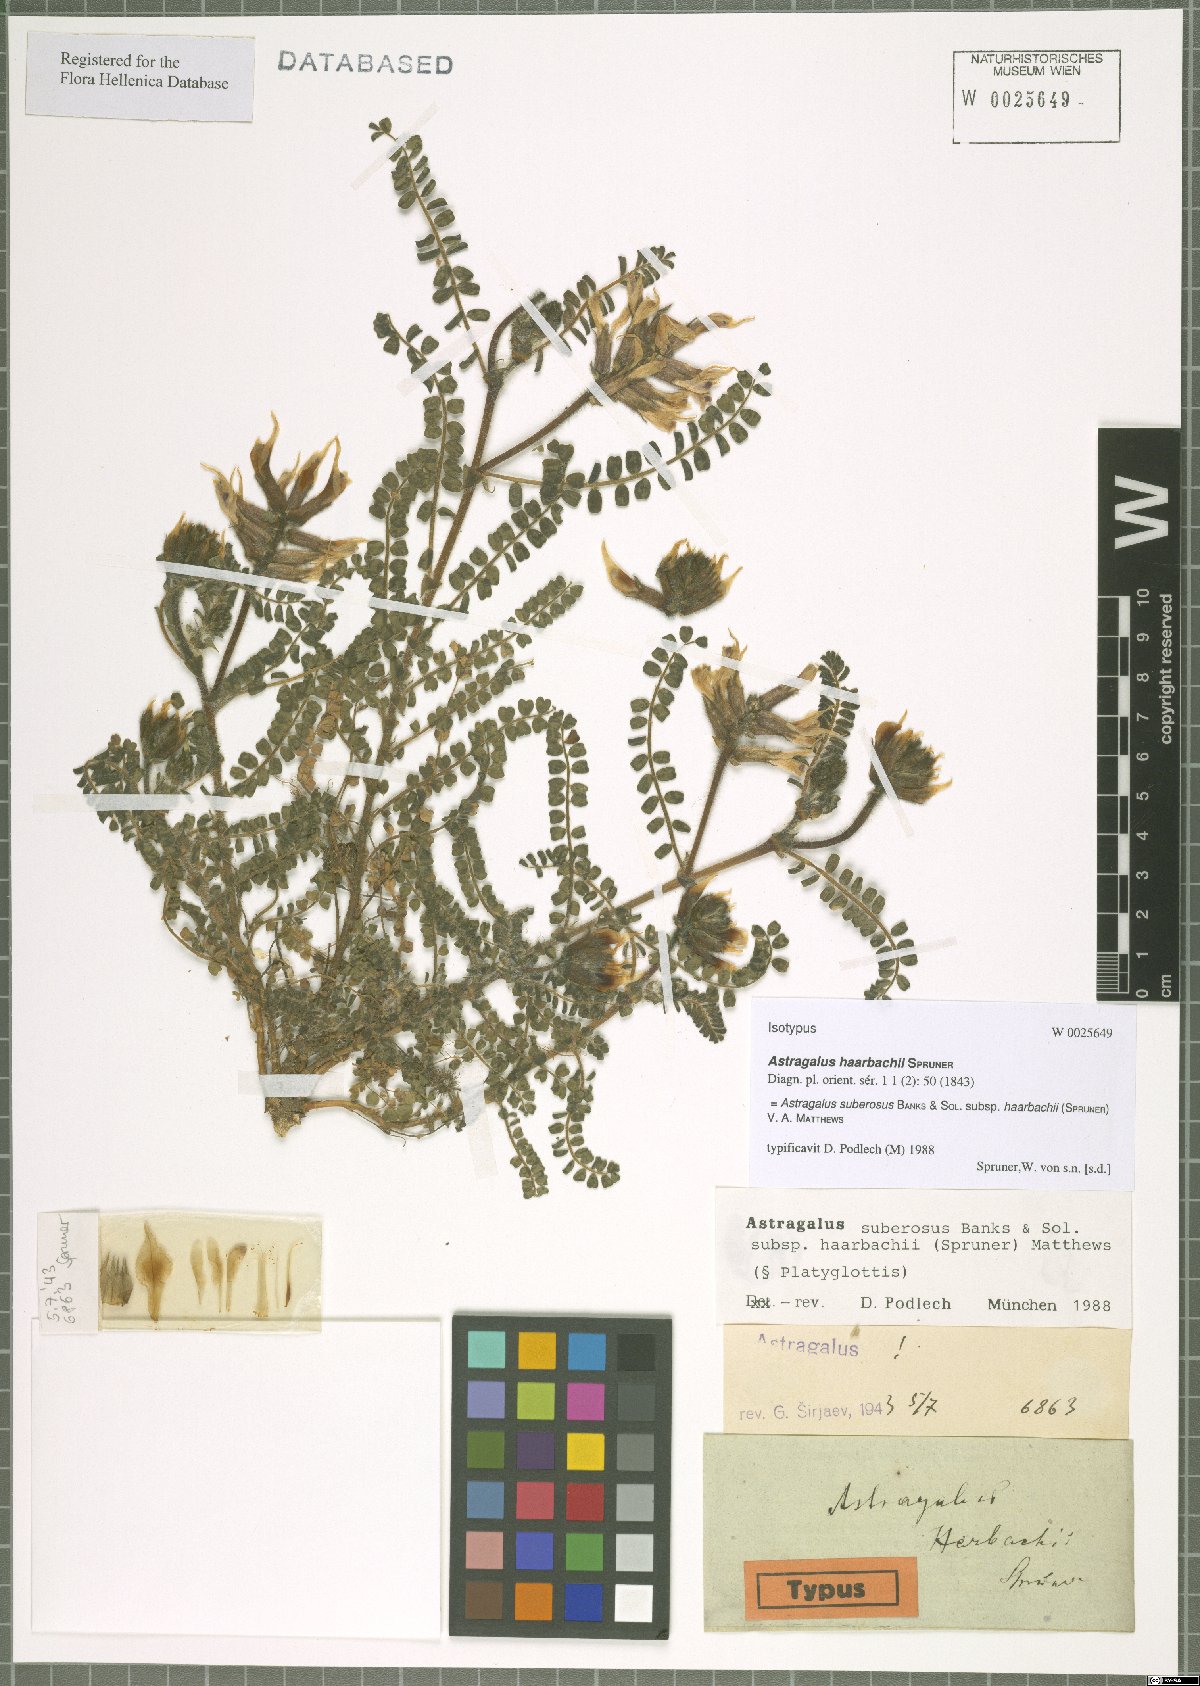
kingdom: Plantae
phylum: Tracheophyta
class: Magnoliopsida
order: Fabales
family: Fabaceae
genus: Astragalus
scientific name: Astragalus suberosus
